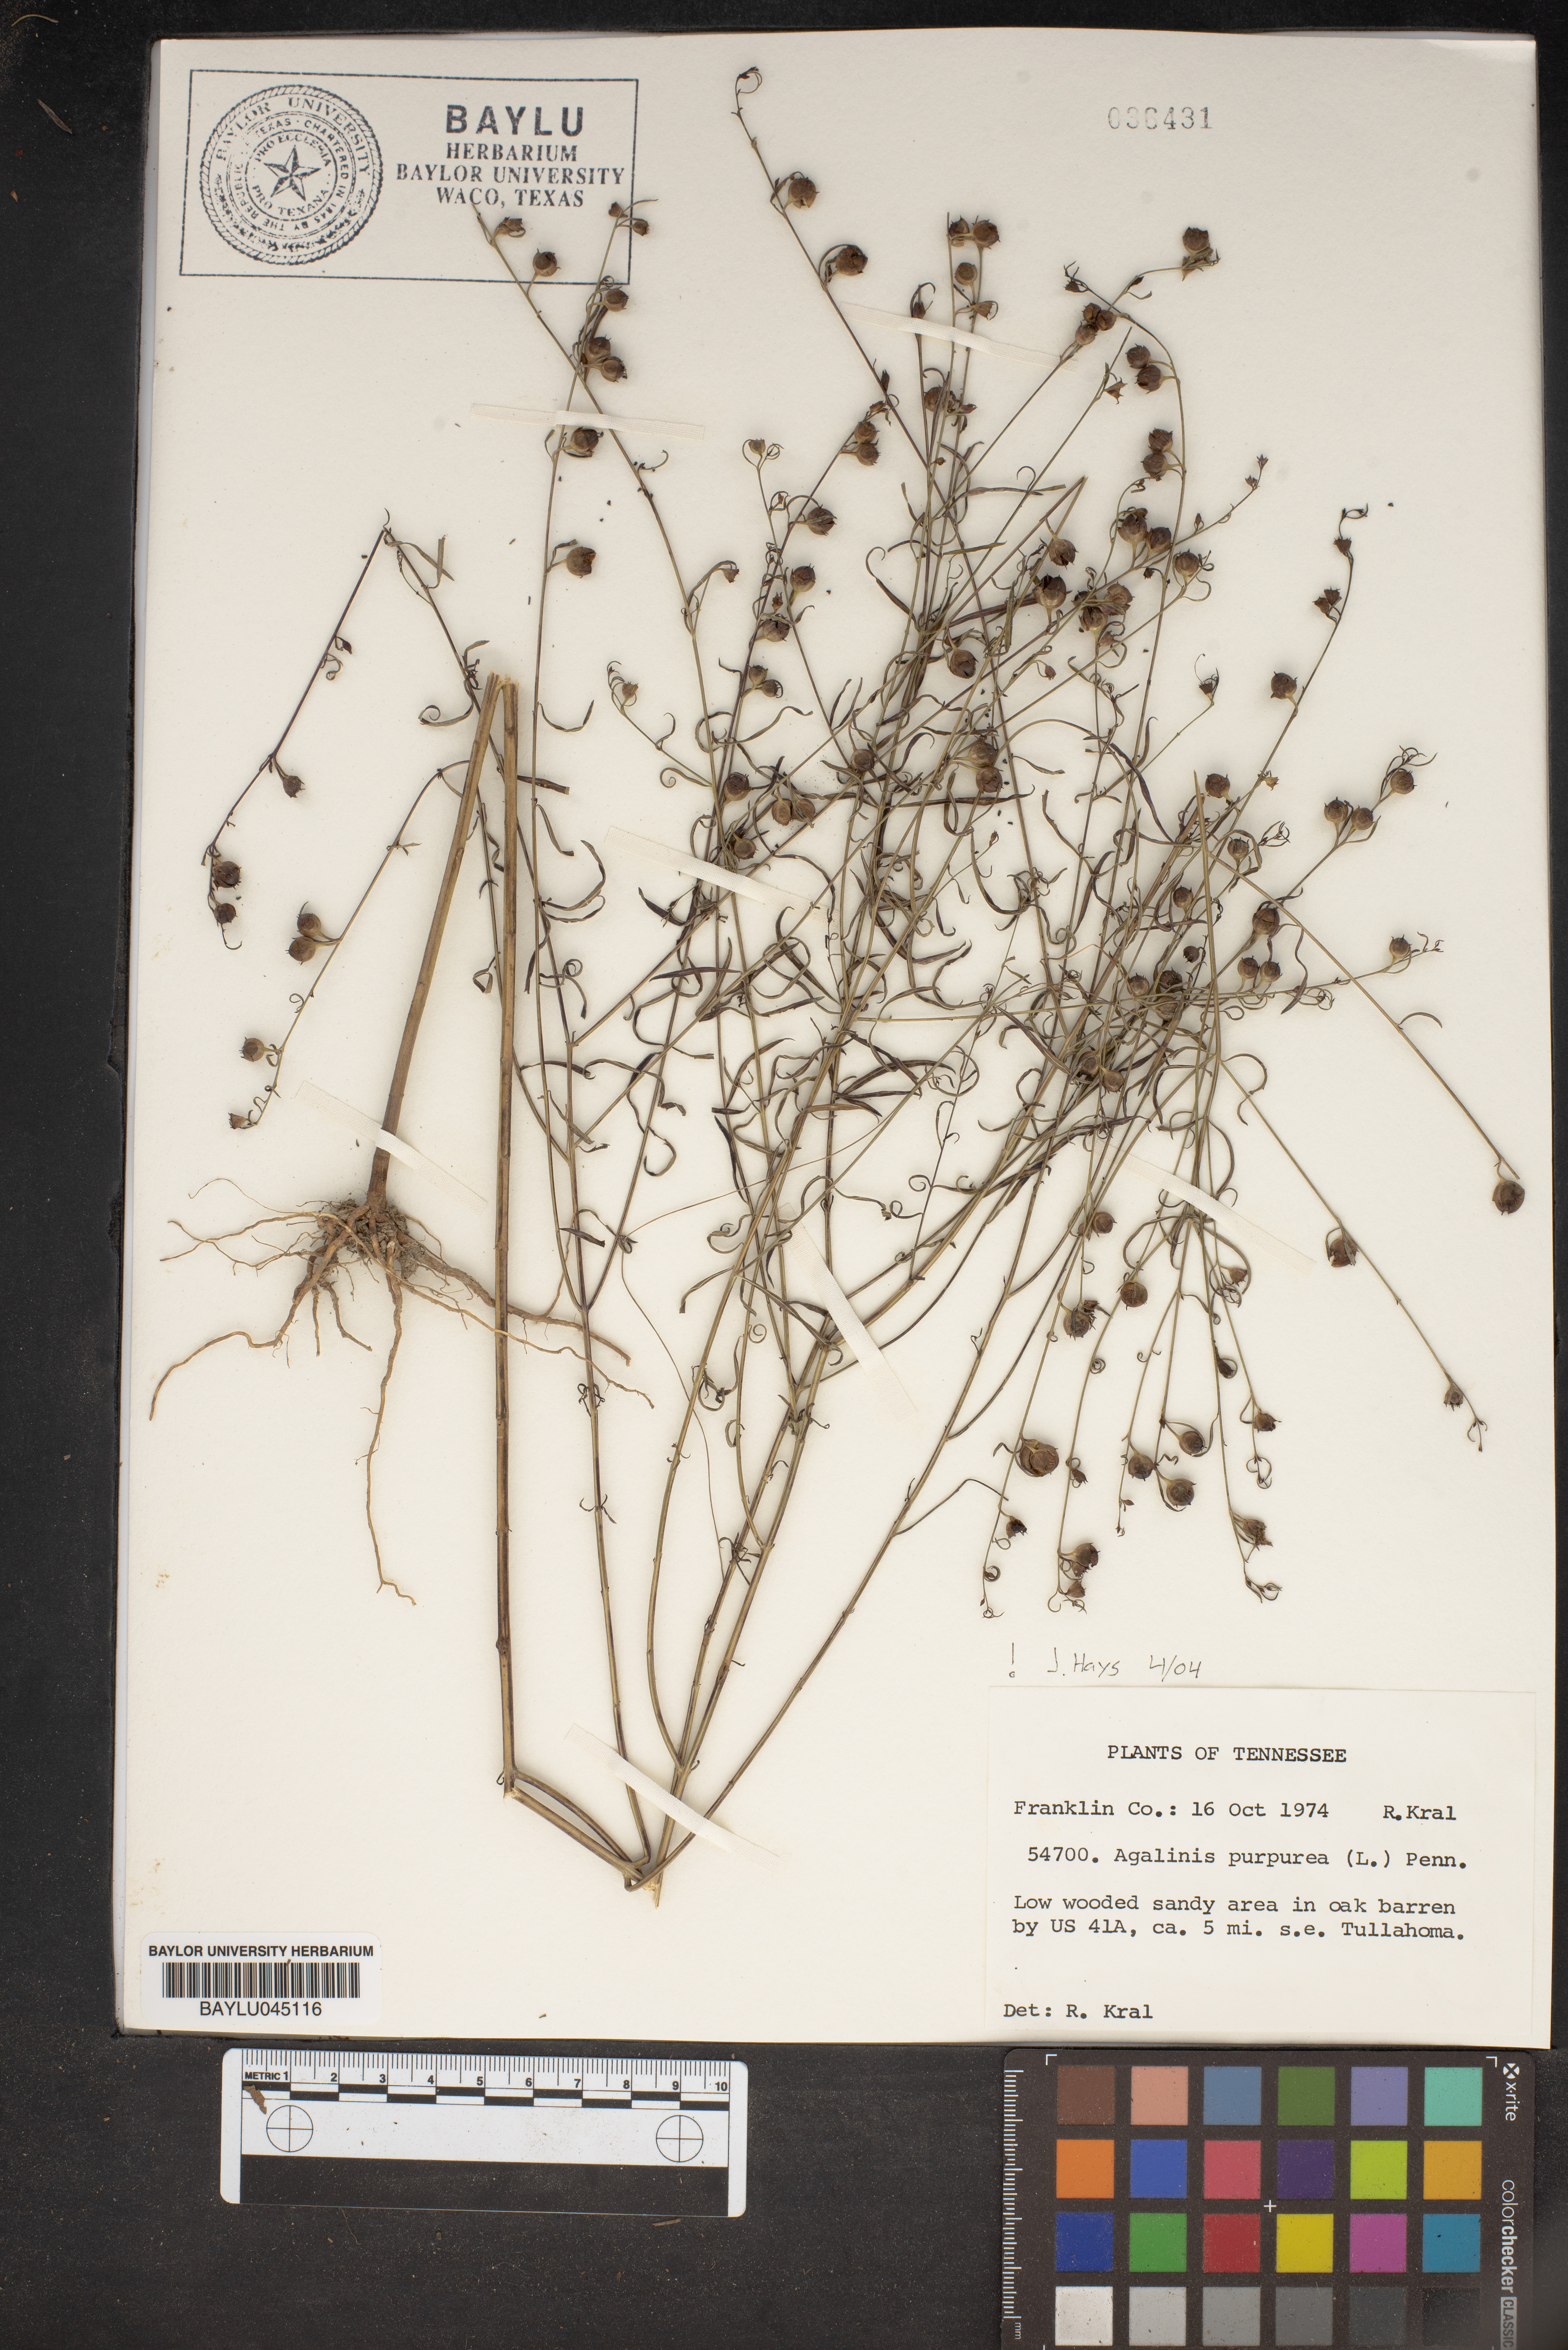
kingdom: Plantae
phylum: Tracheophyta
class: Magnoliopsida
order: Lamiales
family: Orobanchaceae
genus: Agalinis
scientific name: Agalinis purpurea
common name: Purple false foxglove
